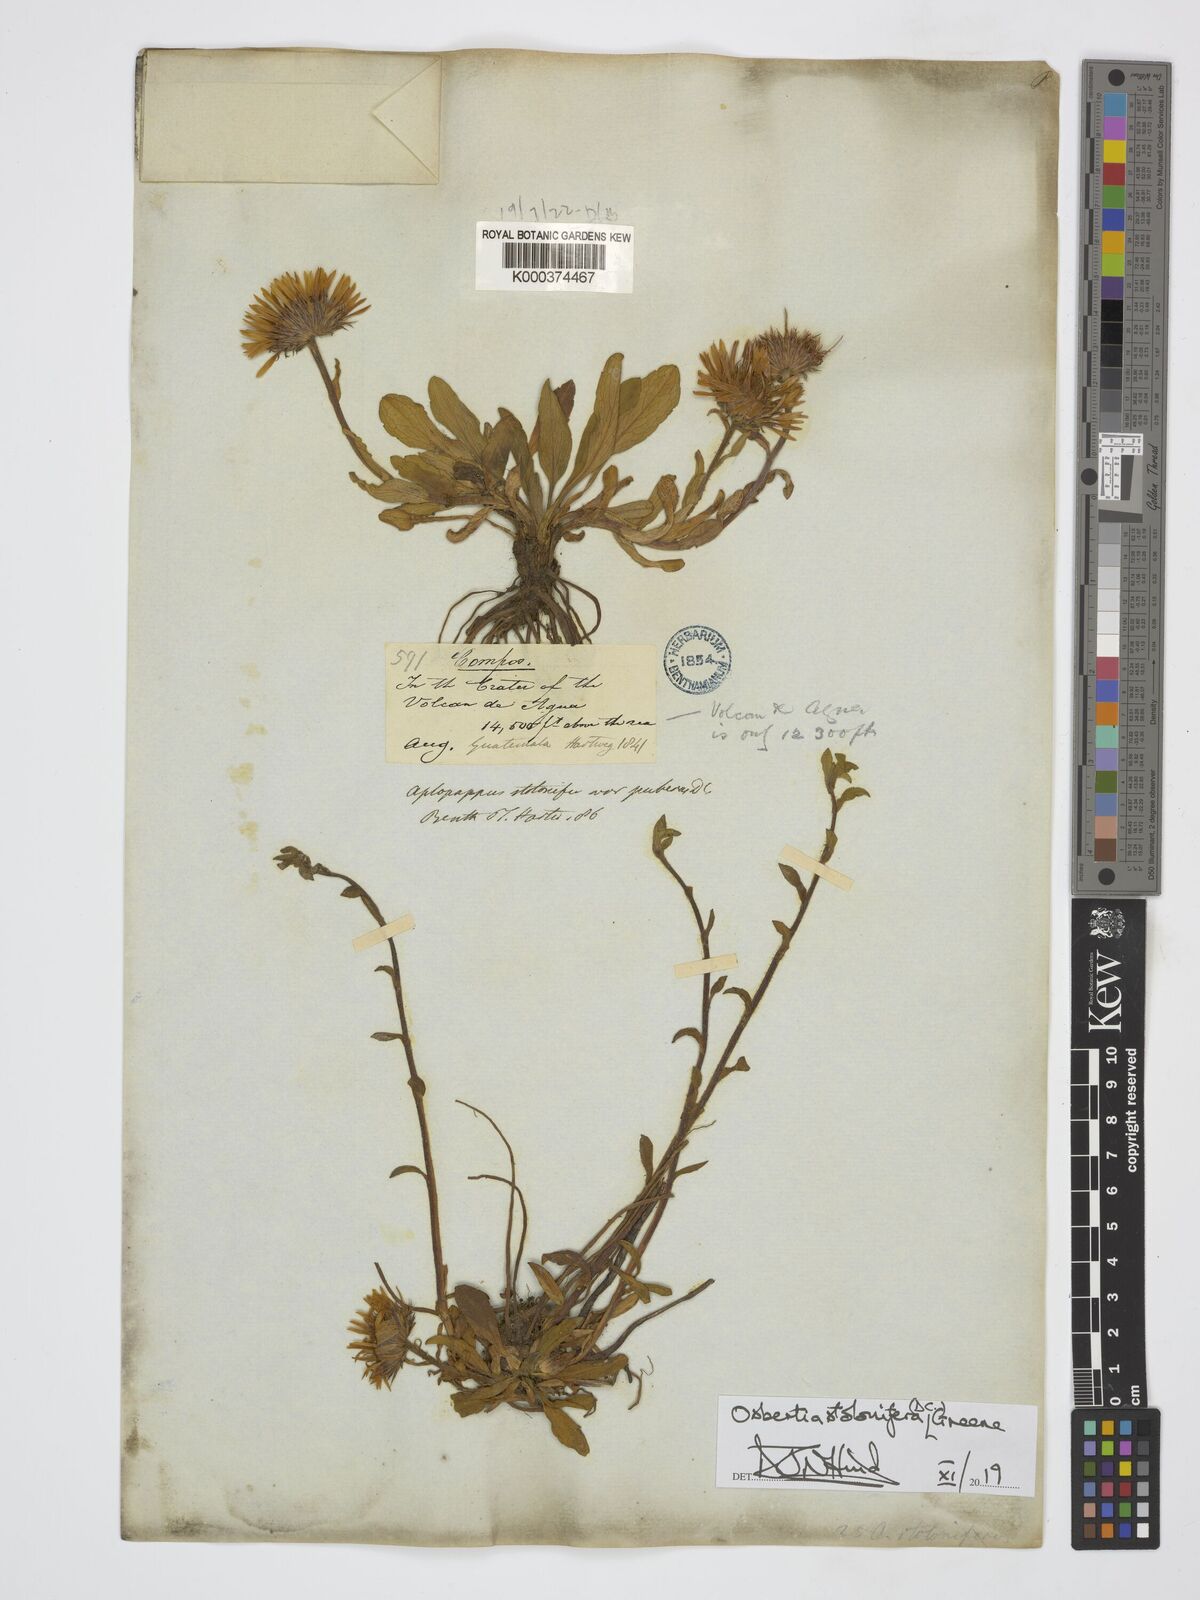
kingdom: Plantae
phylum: Tracheophyta
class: Magnoliopsida
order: Asterales
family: Asteraceae
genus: Osbertia
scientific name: Osbertia stolonifera
